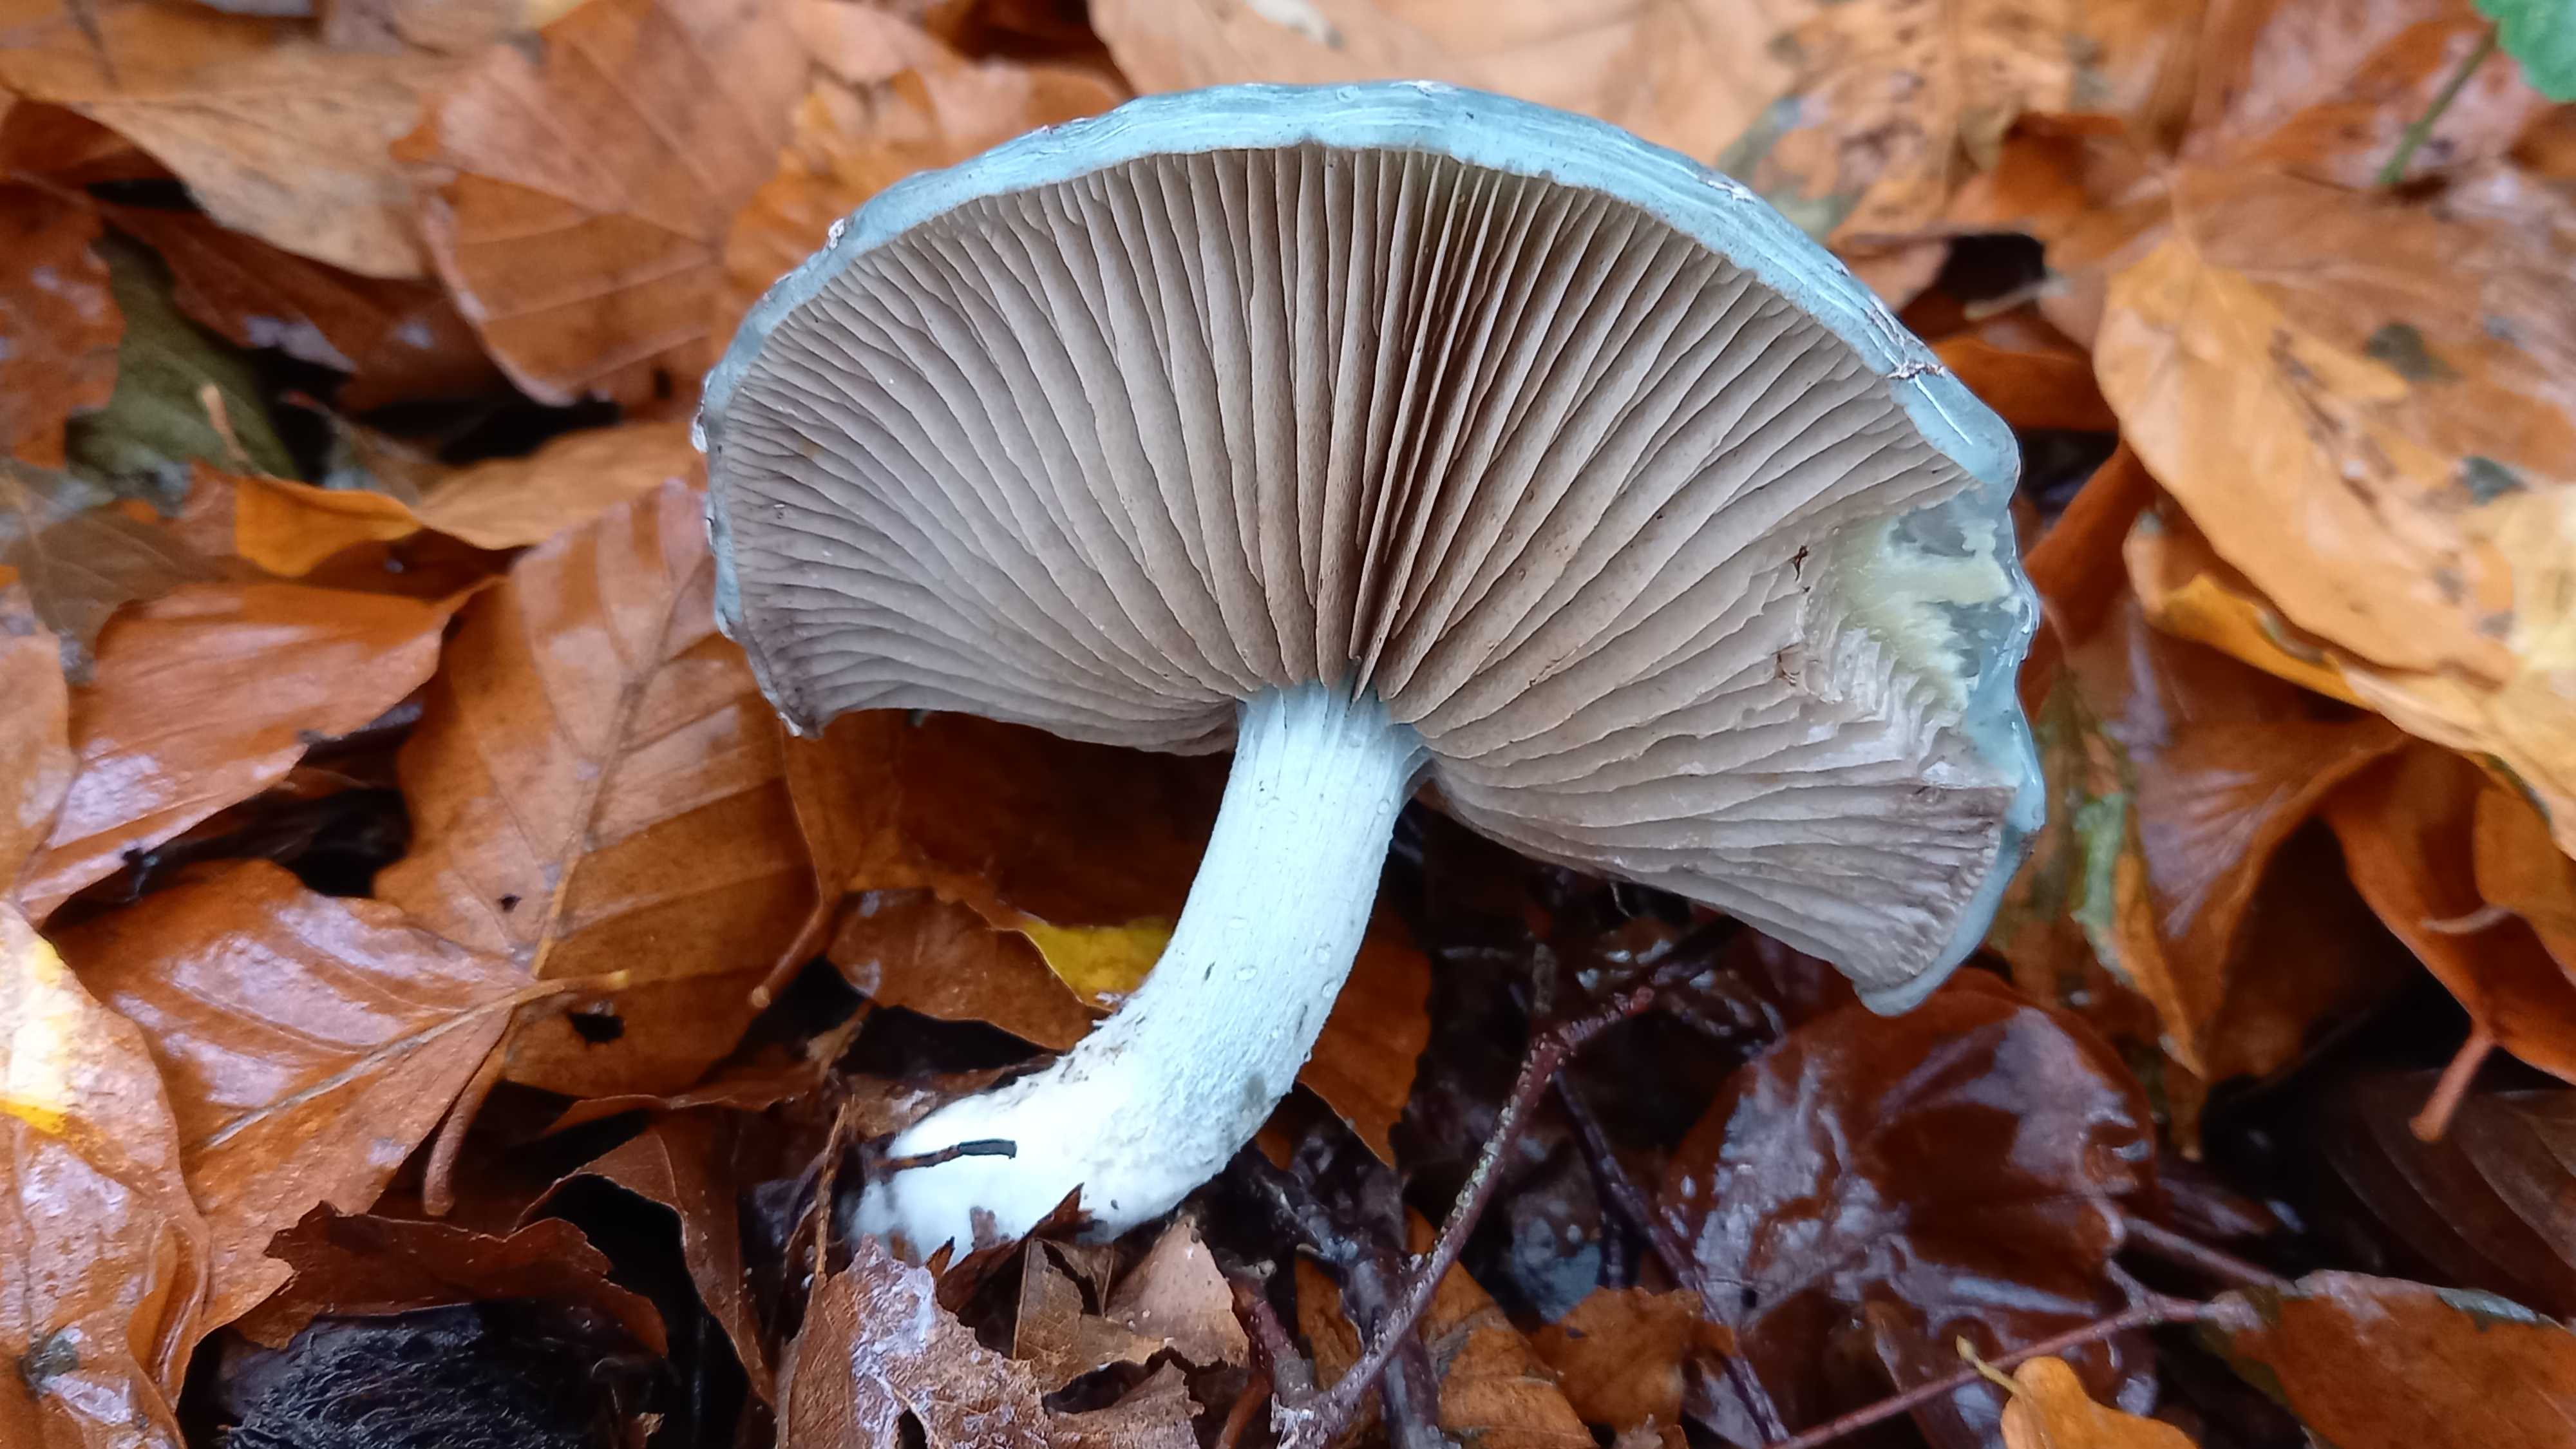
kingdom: Fungi
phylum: Basidiomycota
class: Agaricomycetes
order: Agaricales
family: Strophariaceae
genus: Stropharia
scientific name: Stropharia cyanea
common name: blågrøn bredblad
